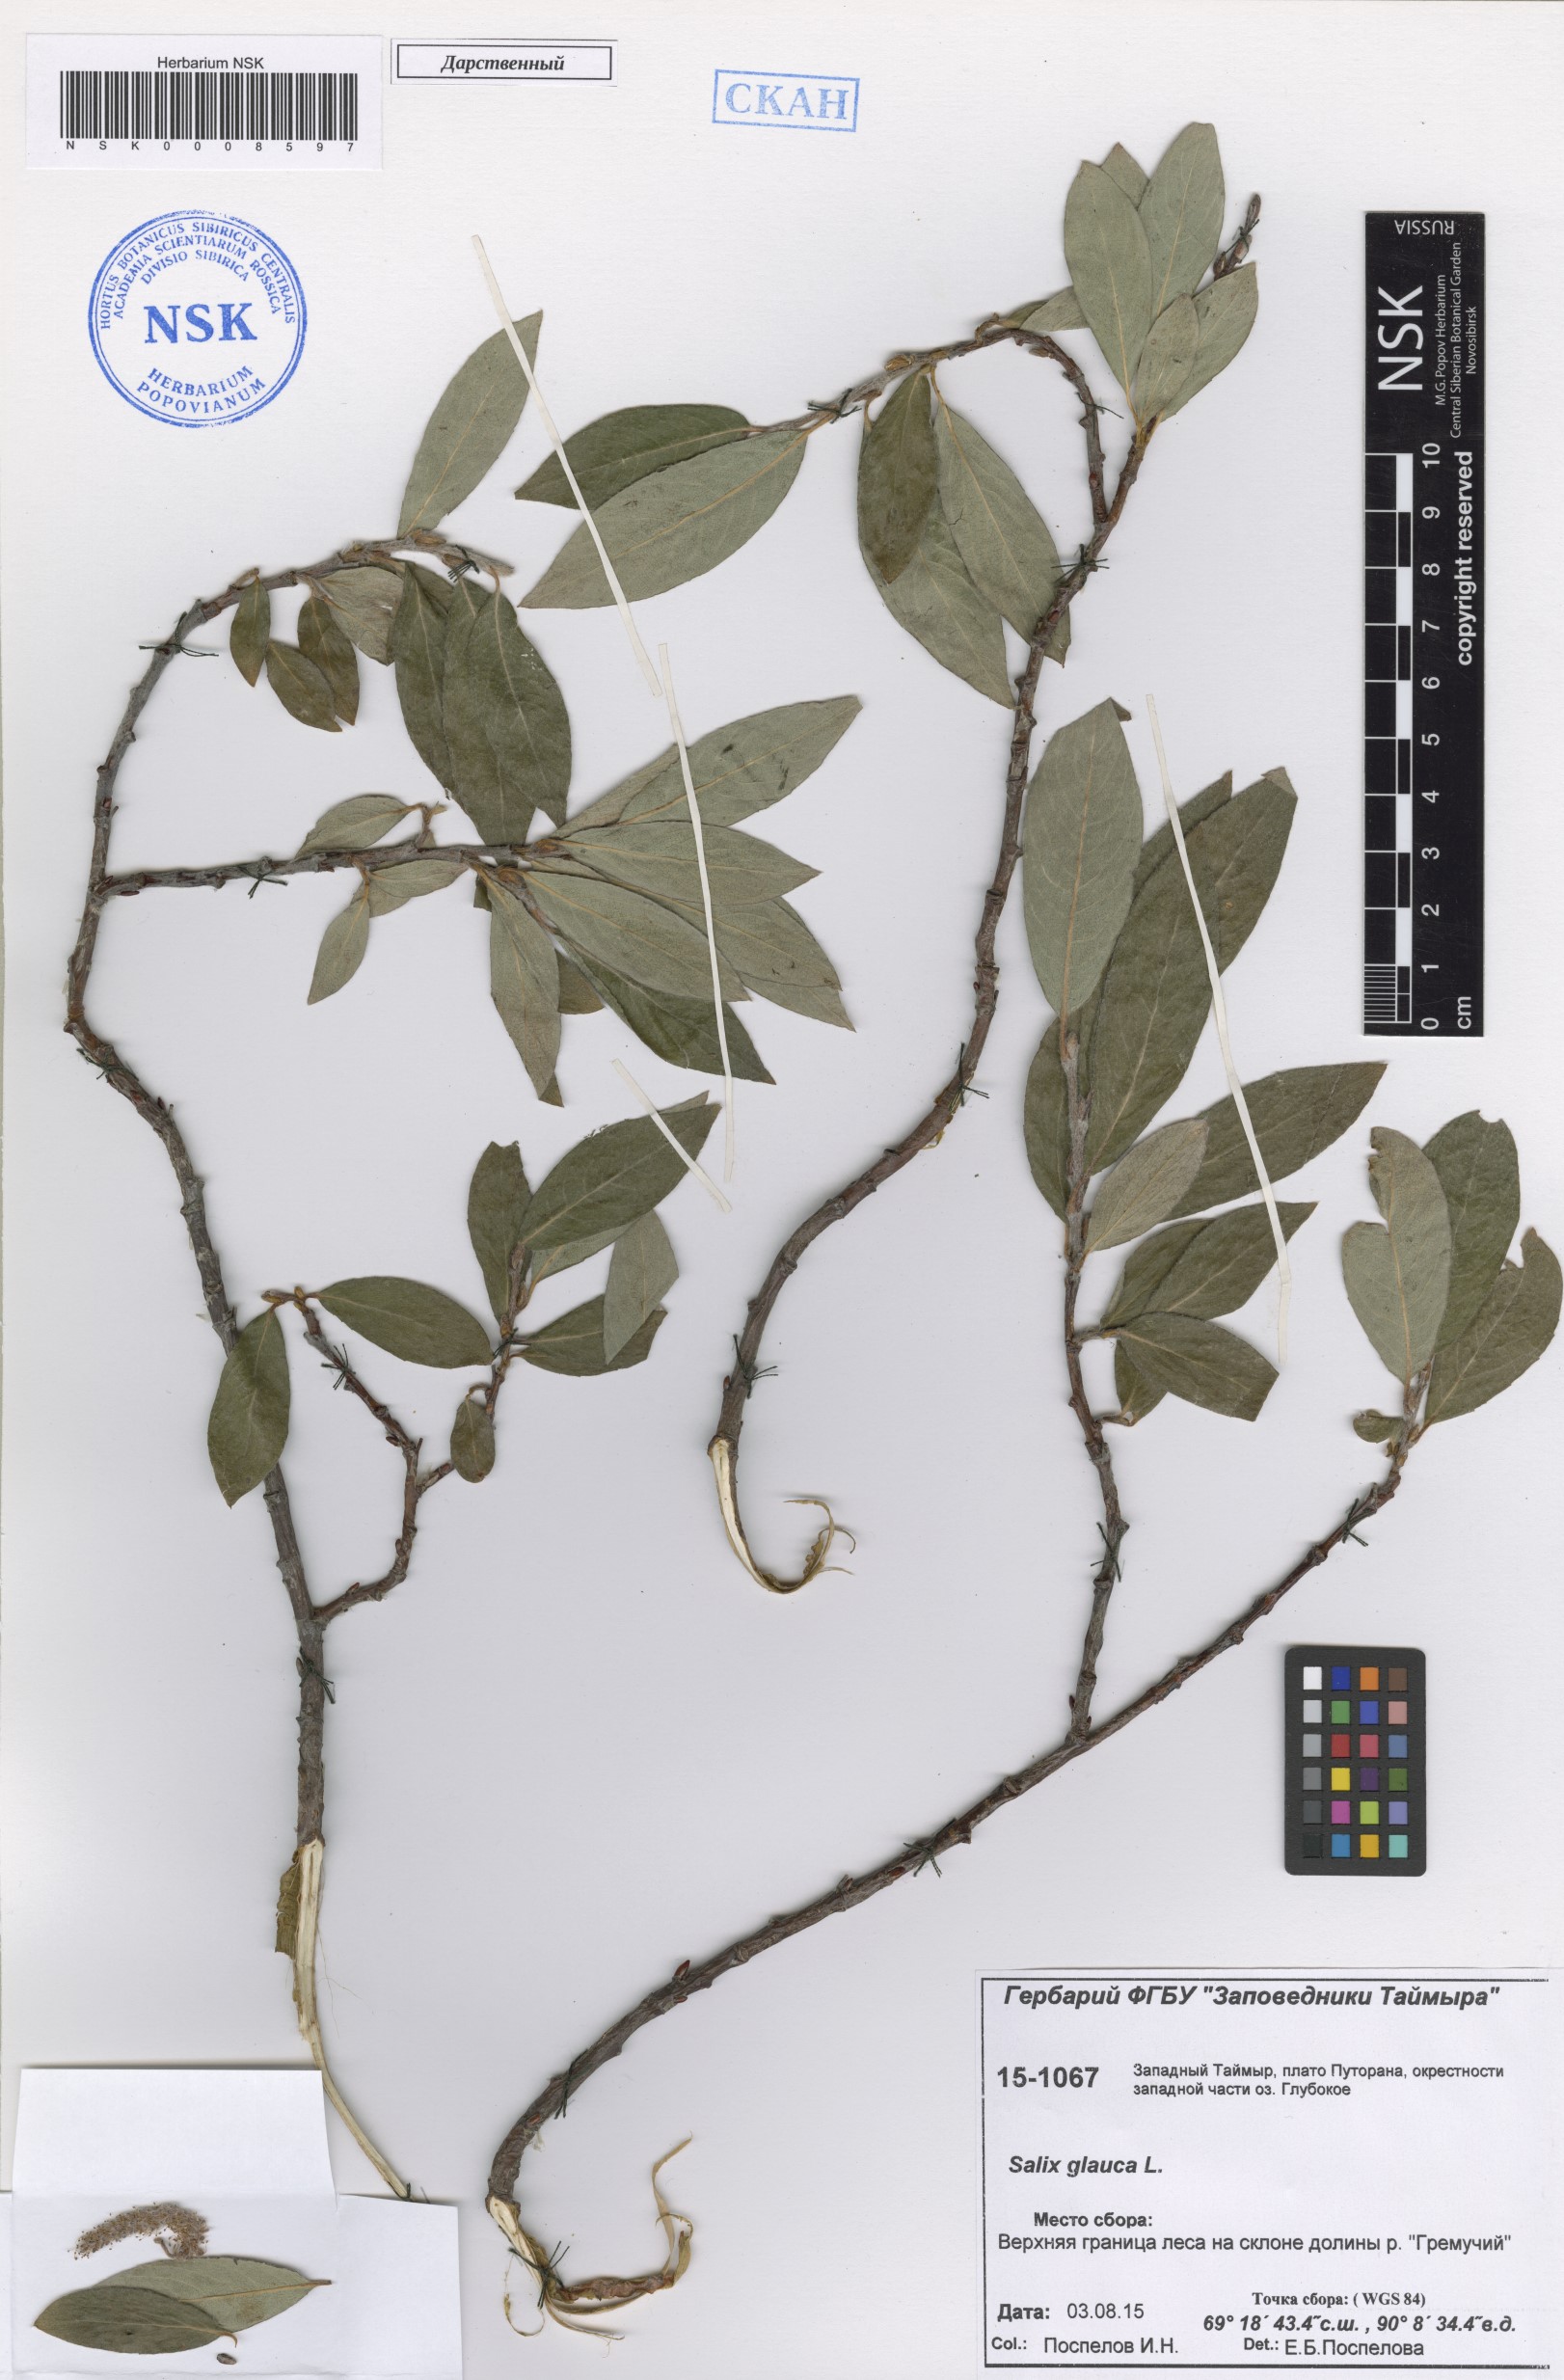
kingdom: Plantae
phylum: Tracheophyta
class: Magnoliopsida
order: Malpighiales
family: Salicaceae
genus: Salix
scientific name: Salix glauca
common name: Glaucous willow
